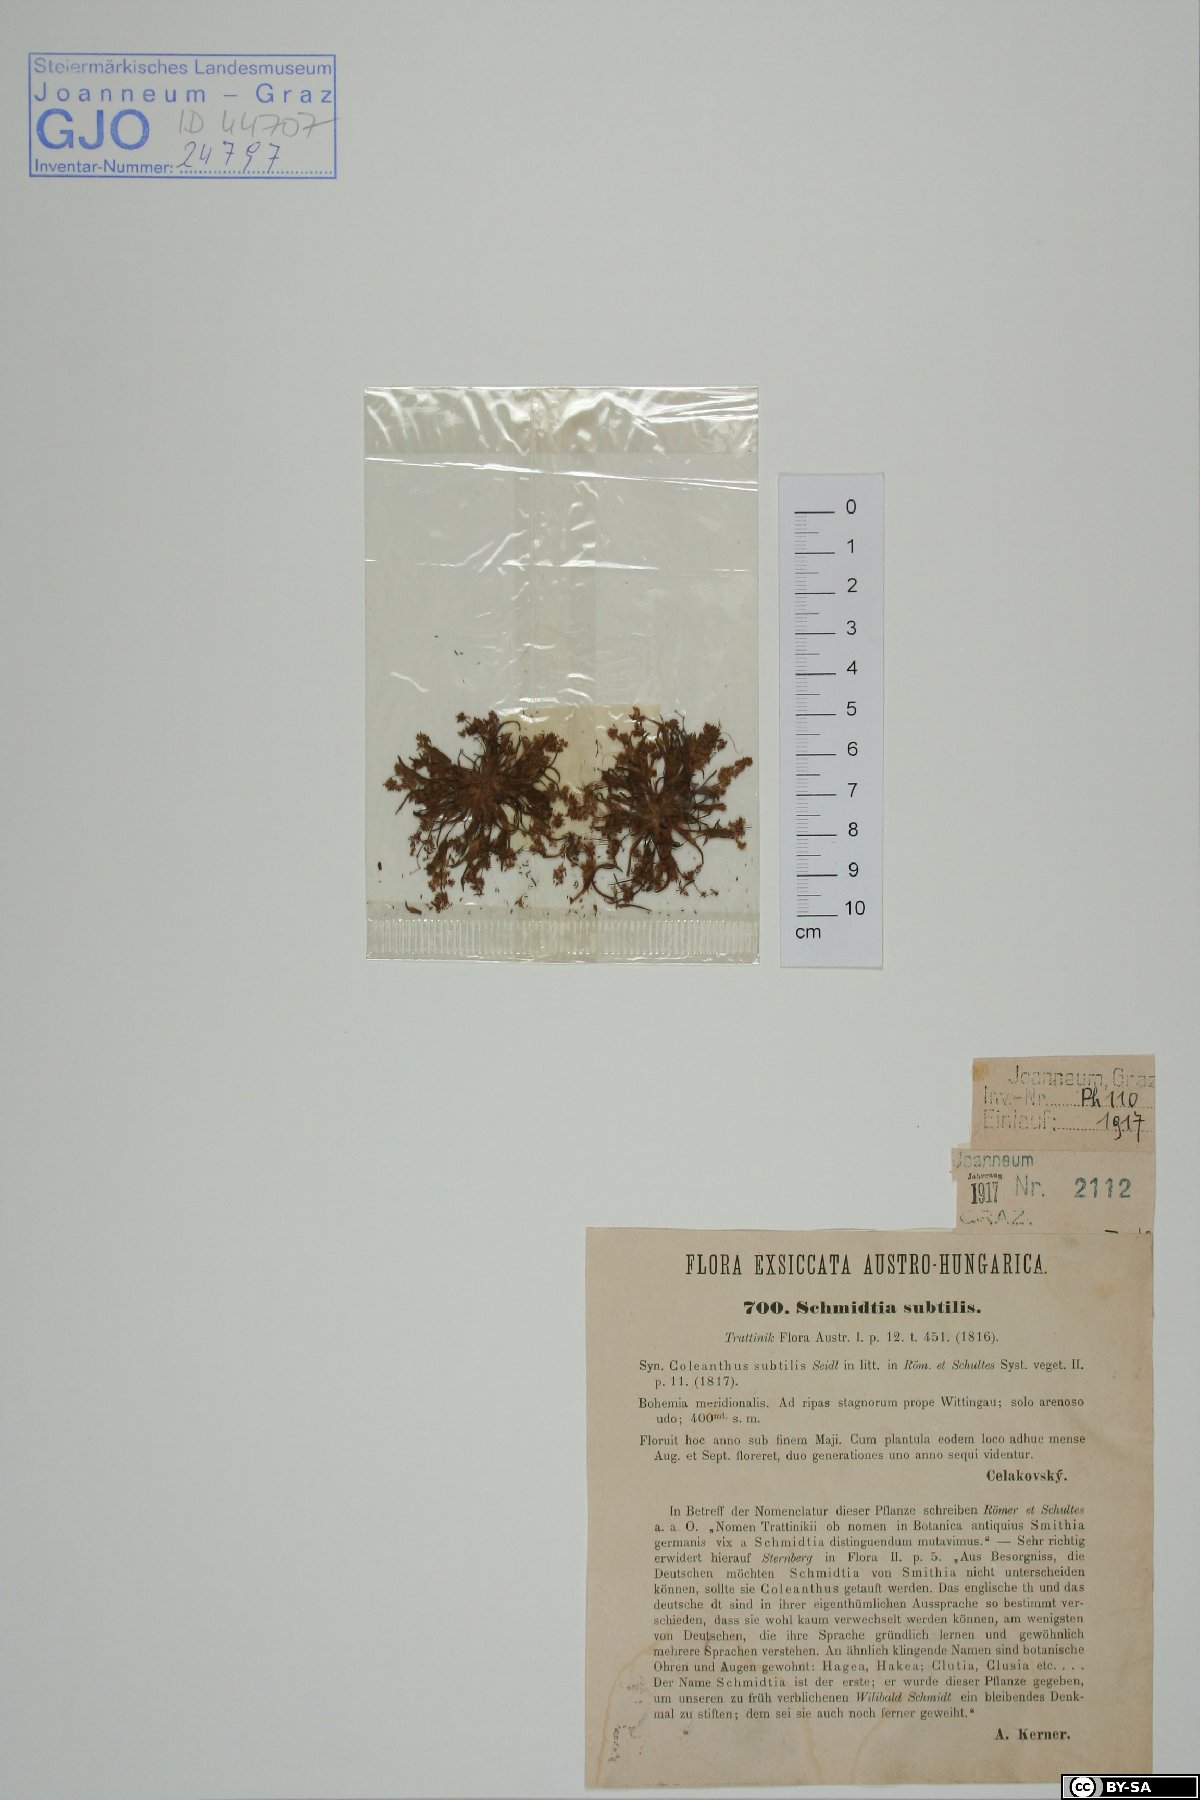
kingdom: Plantae
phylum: Tracheophyta
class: Liliopsida
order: Poales
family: Poaceae
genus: Coleanthus
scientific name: Coleanthus subtilis
